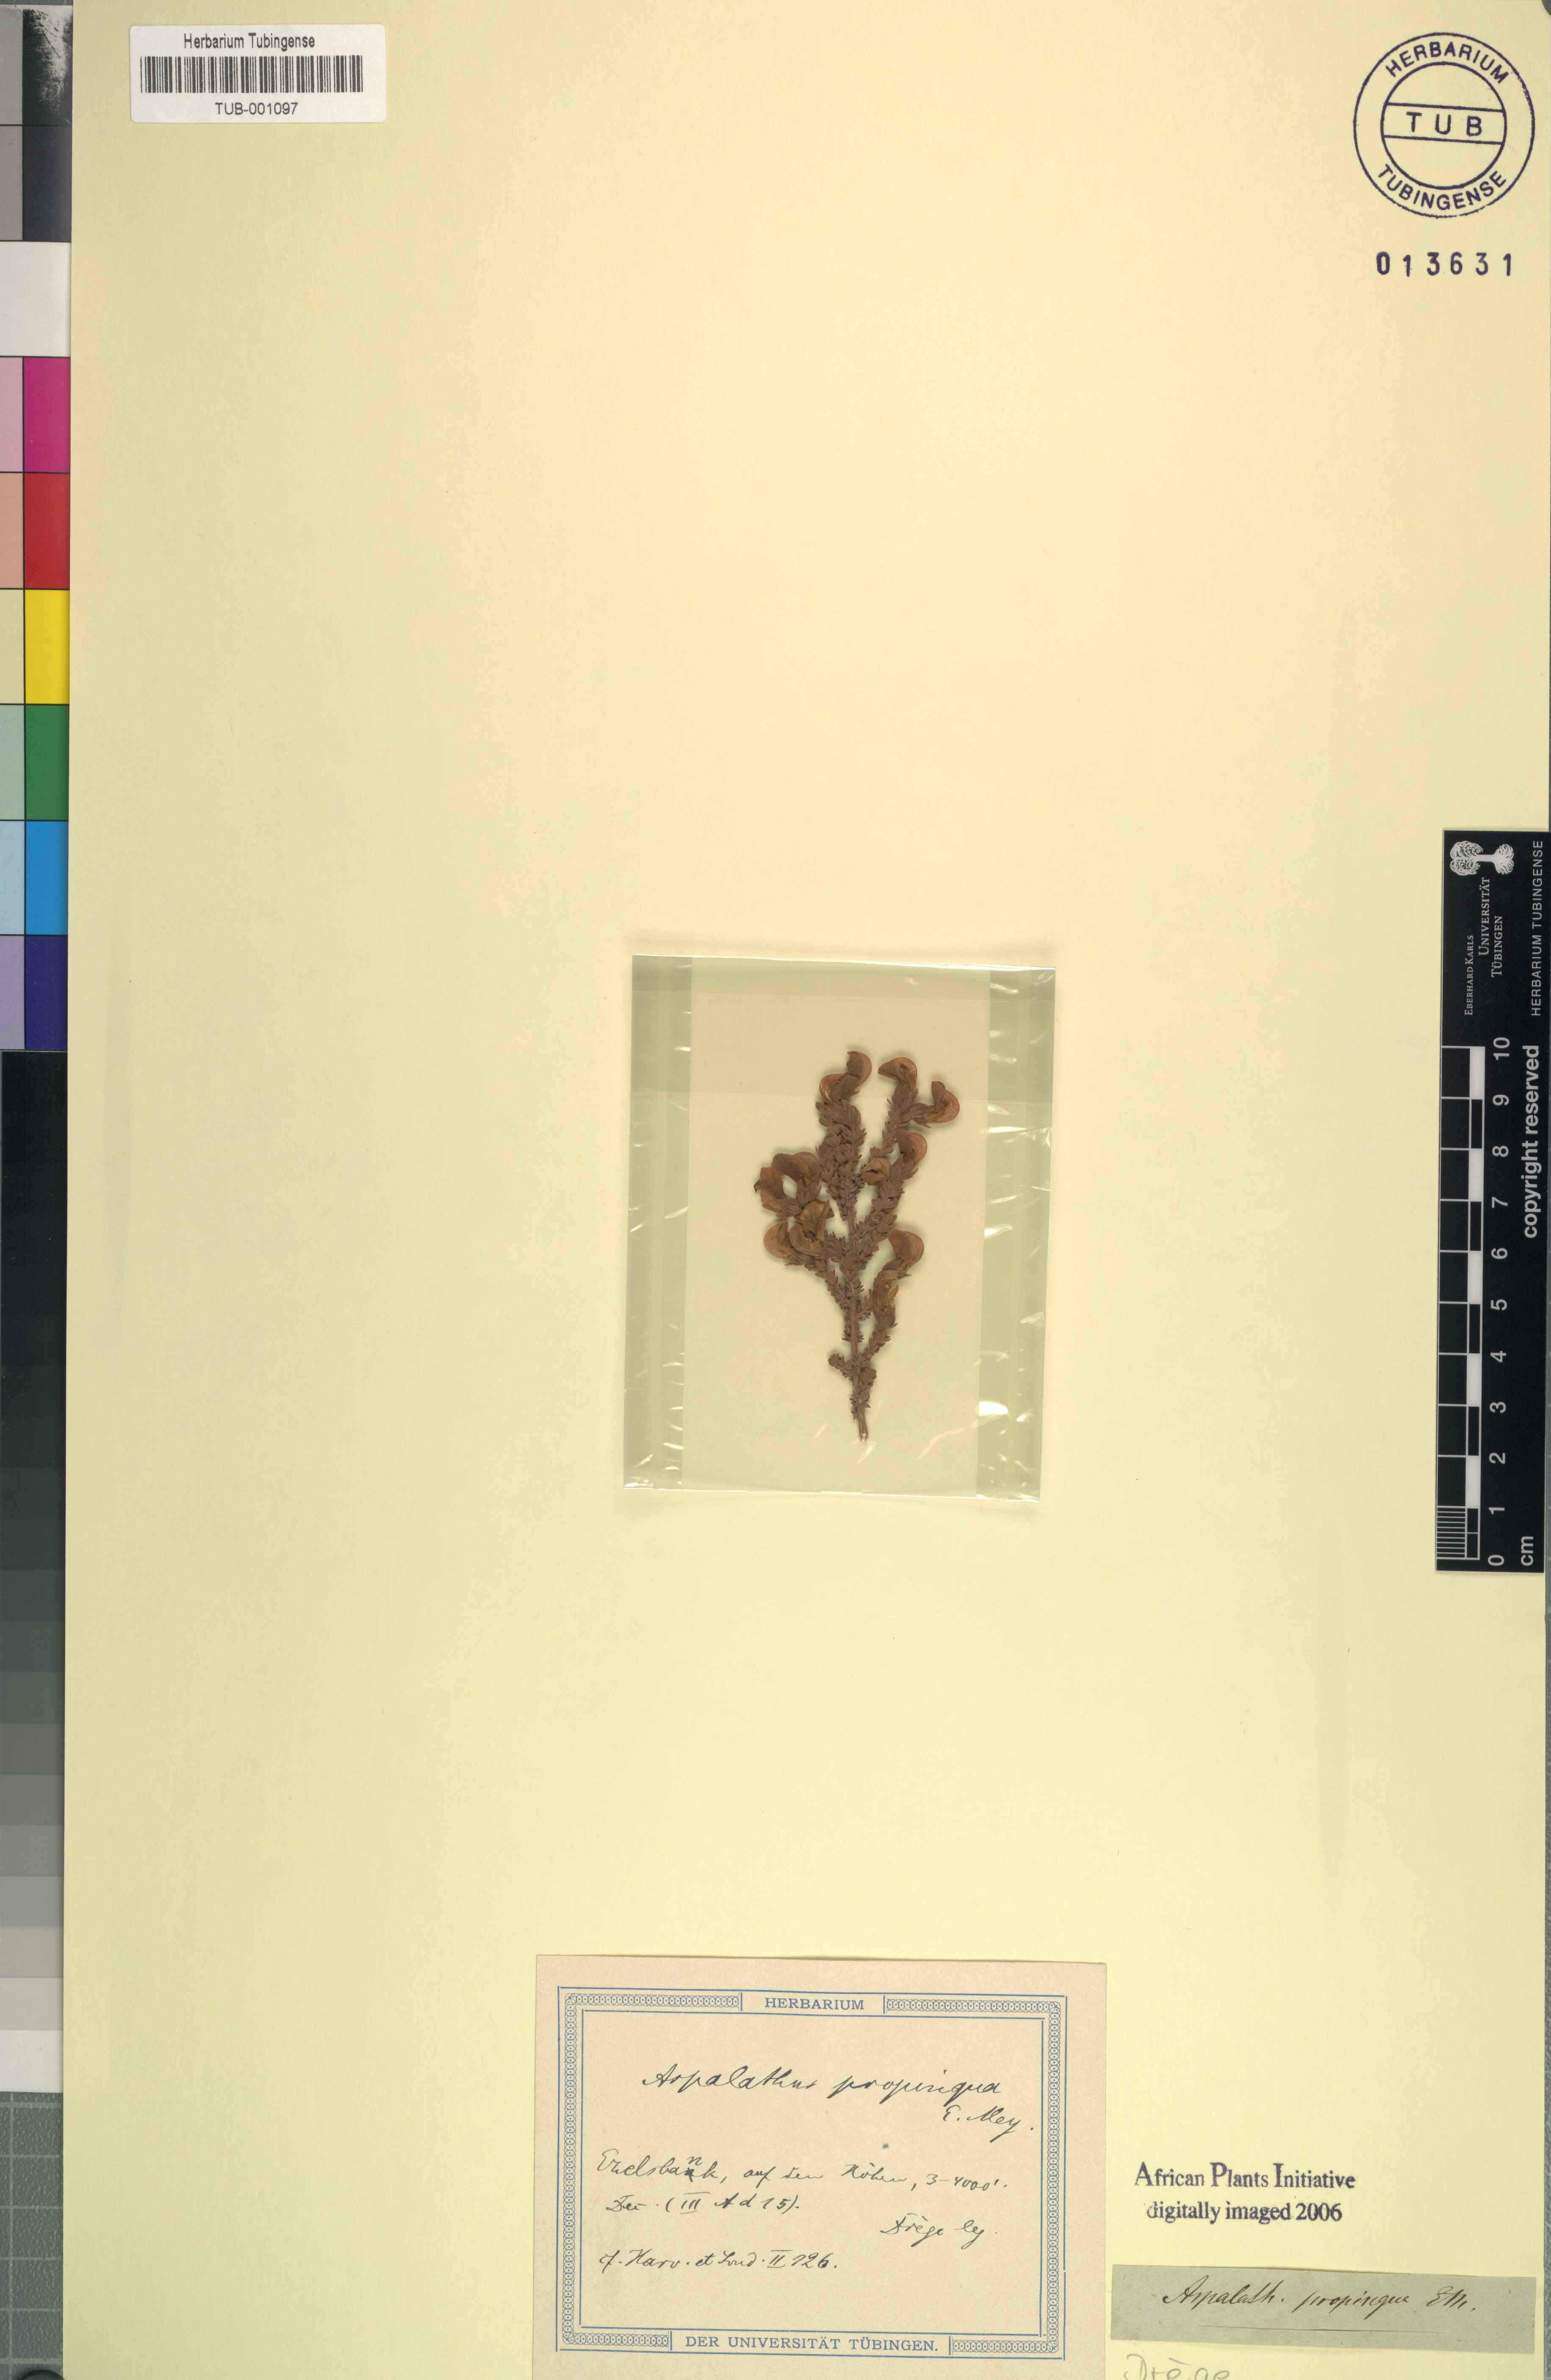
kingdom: Plantae
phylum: Tracheophyta
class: Magnoliopsida
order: Fabales
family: Fabaceae
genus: Aspalathus
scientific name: Aspalathus triquetra
